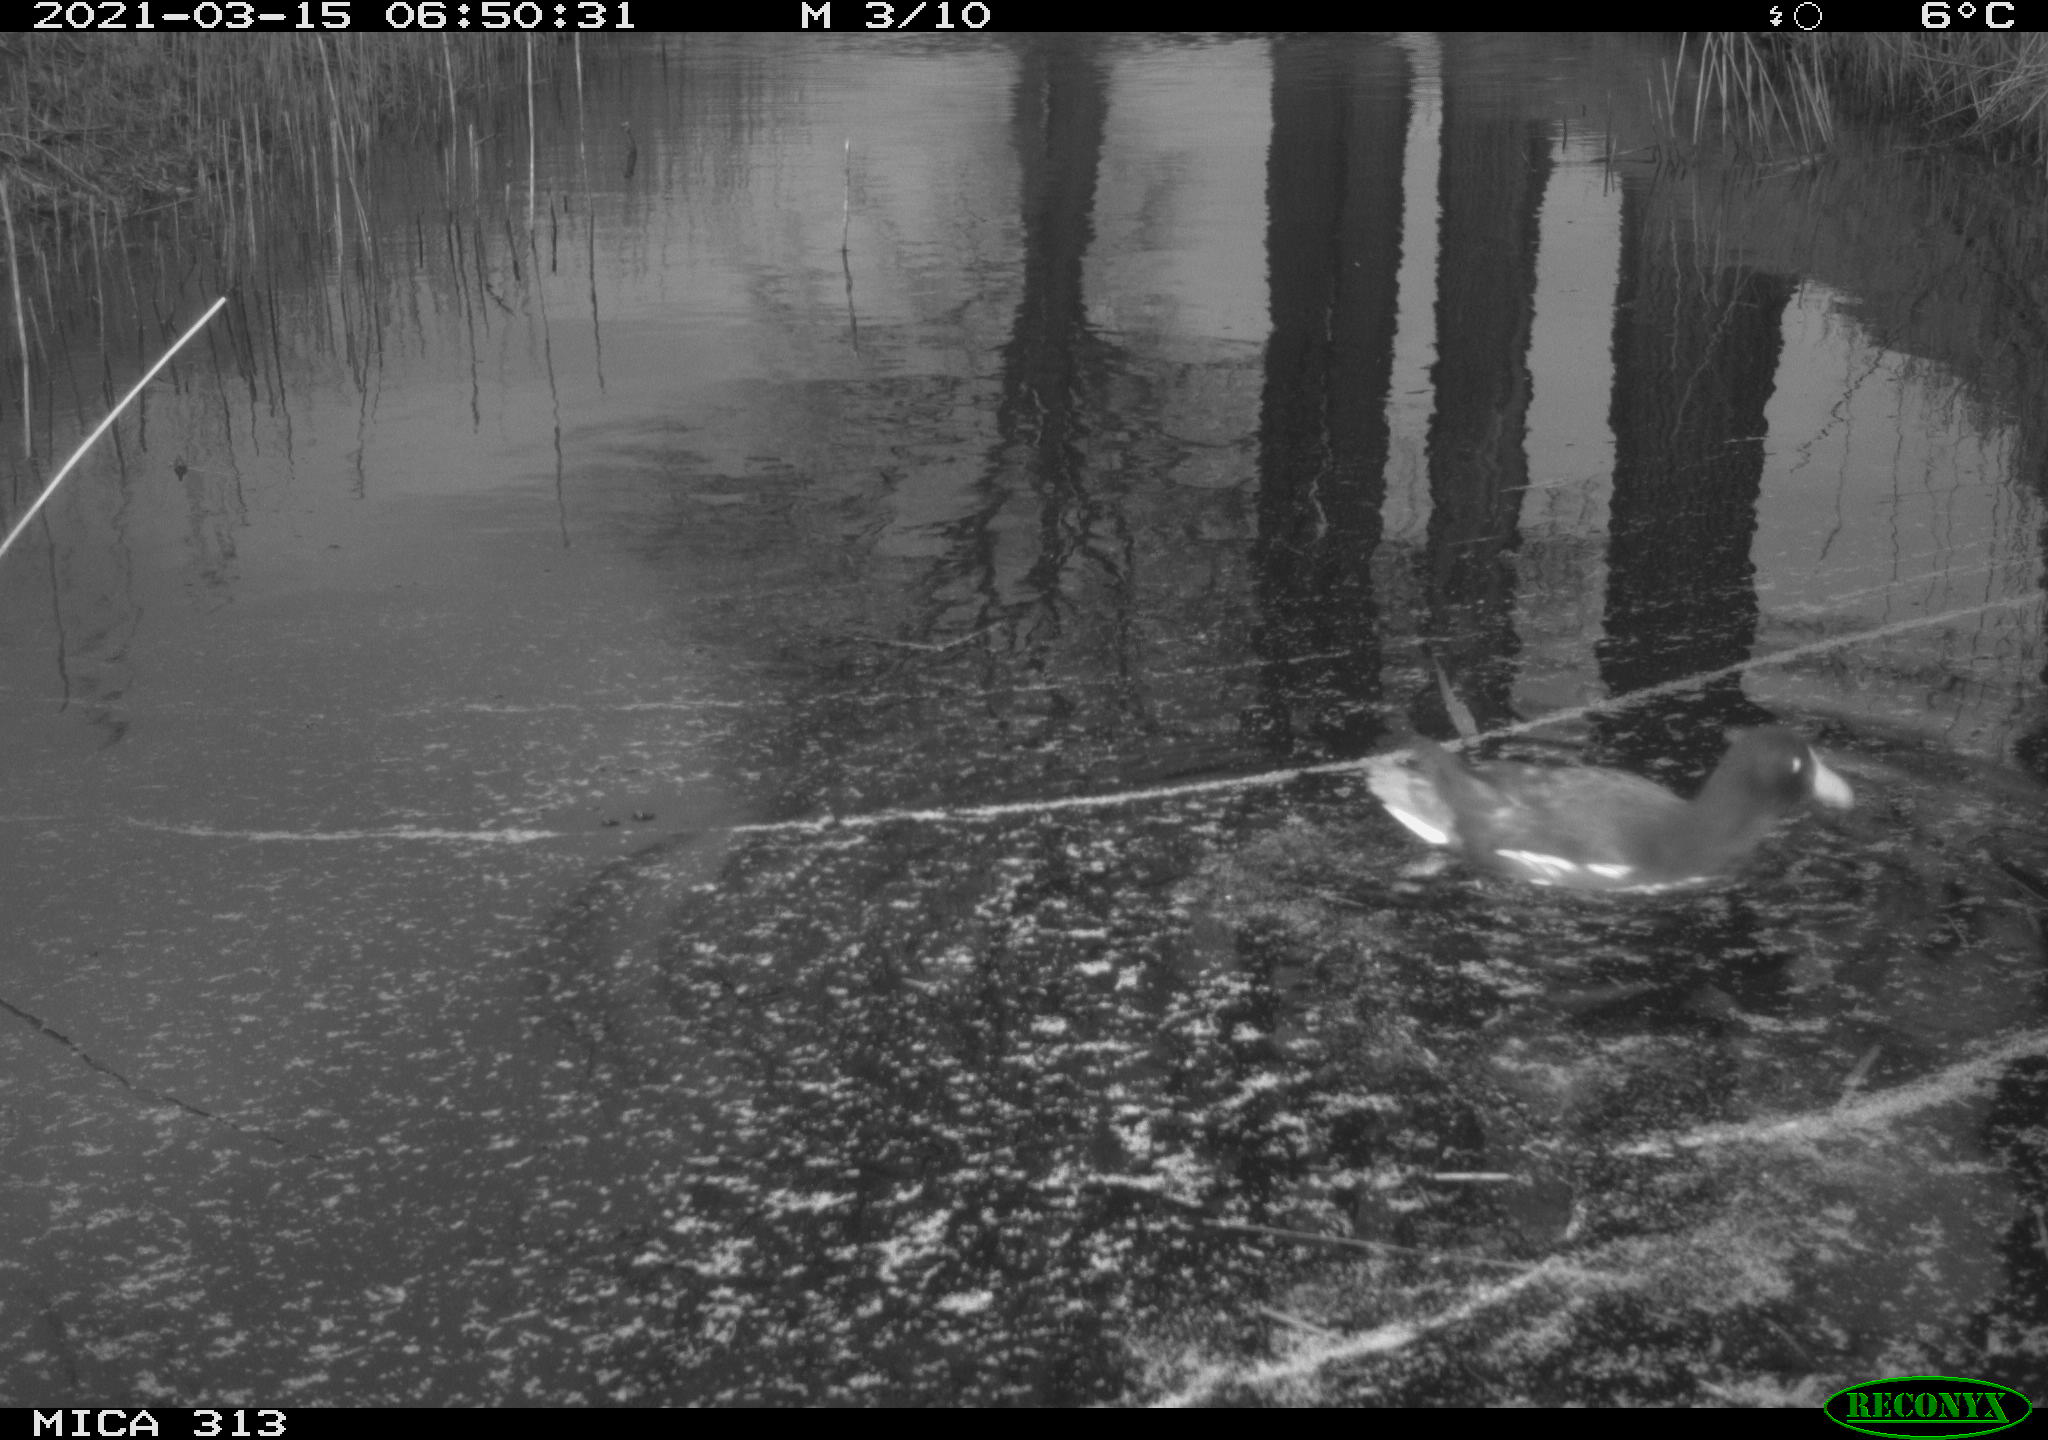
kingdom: Animalia
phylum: Chordata
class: Aves
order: Gruiformes
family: Rallidae
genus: Gallinula
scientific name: Gallinula chloropus
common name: Common moorhen
